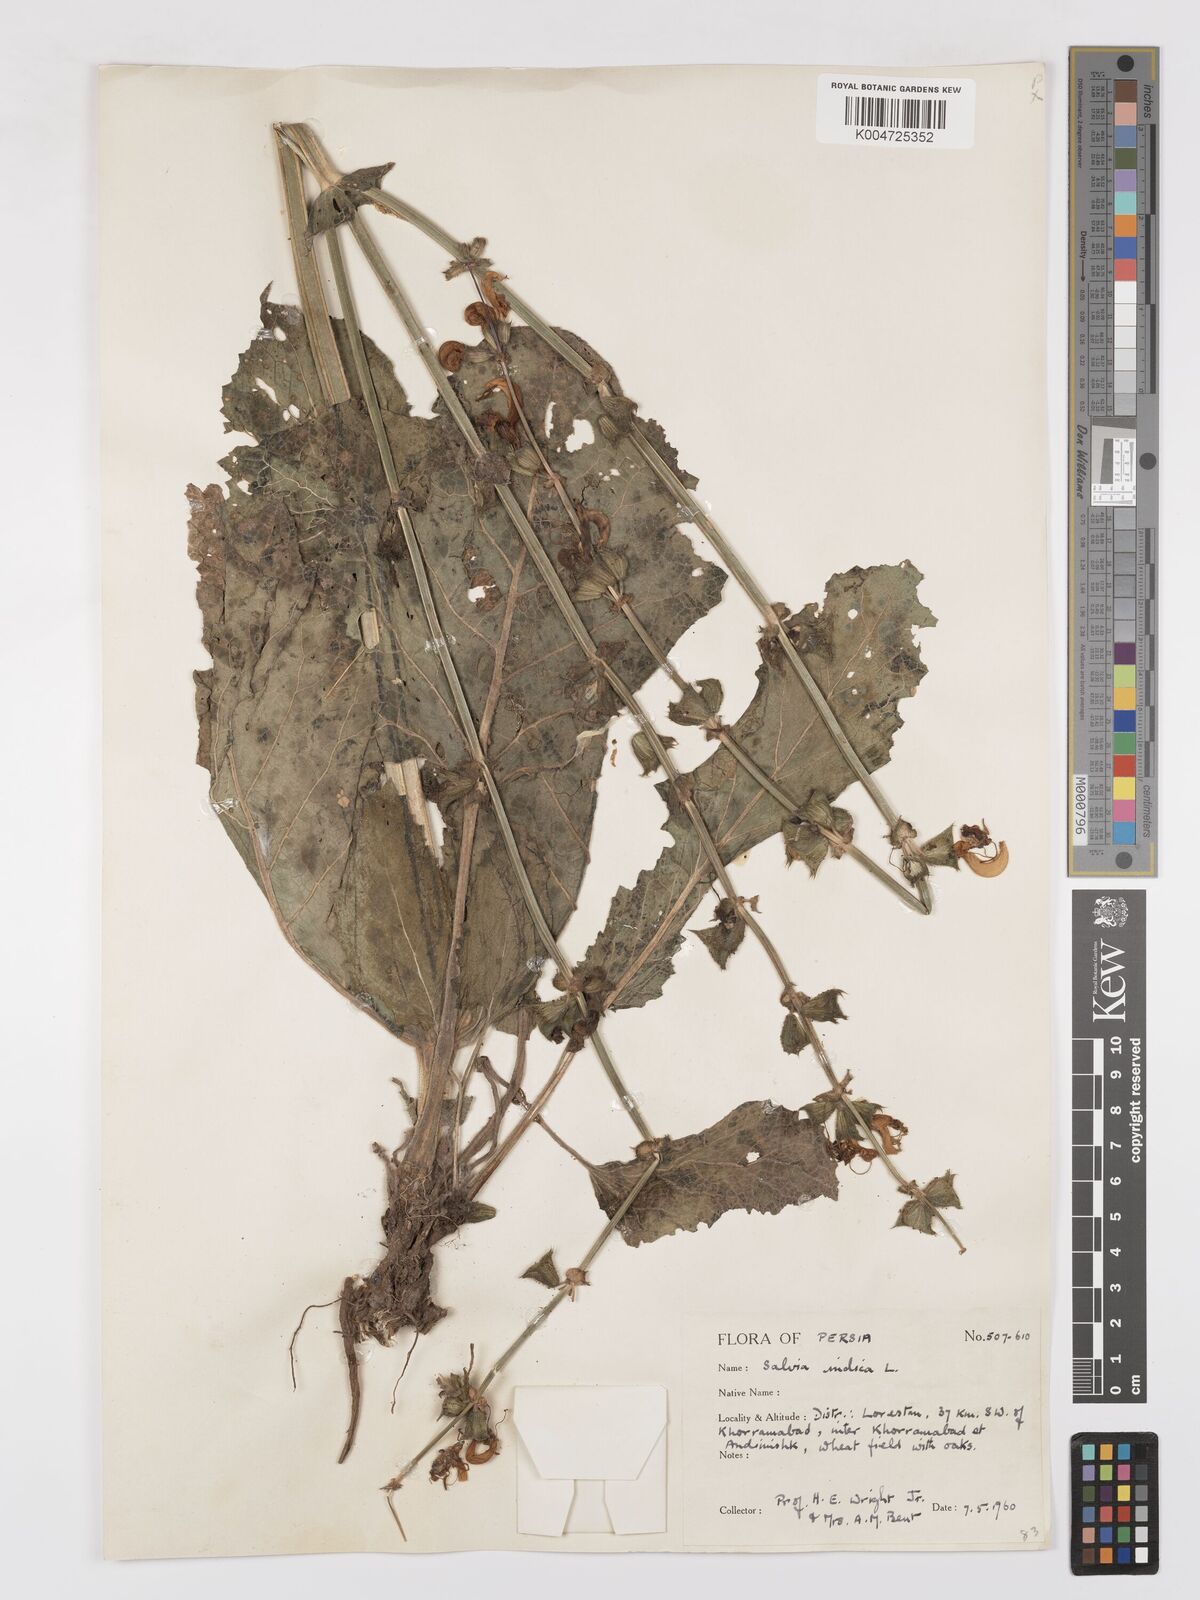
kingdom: Plantae
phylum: Tracheophyta
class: Magnoliopsida
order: Lamiales
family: Lamiaceae
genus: Salvia
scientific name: Salvia indica
